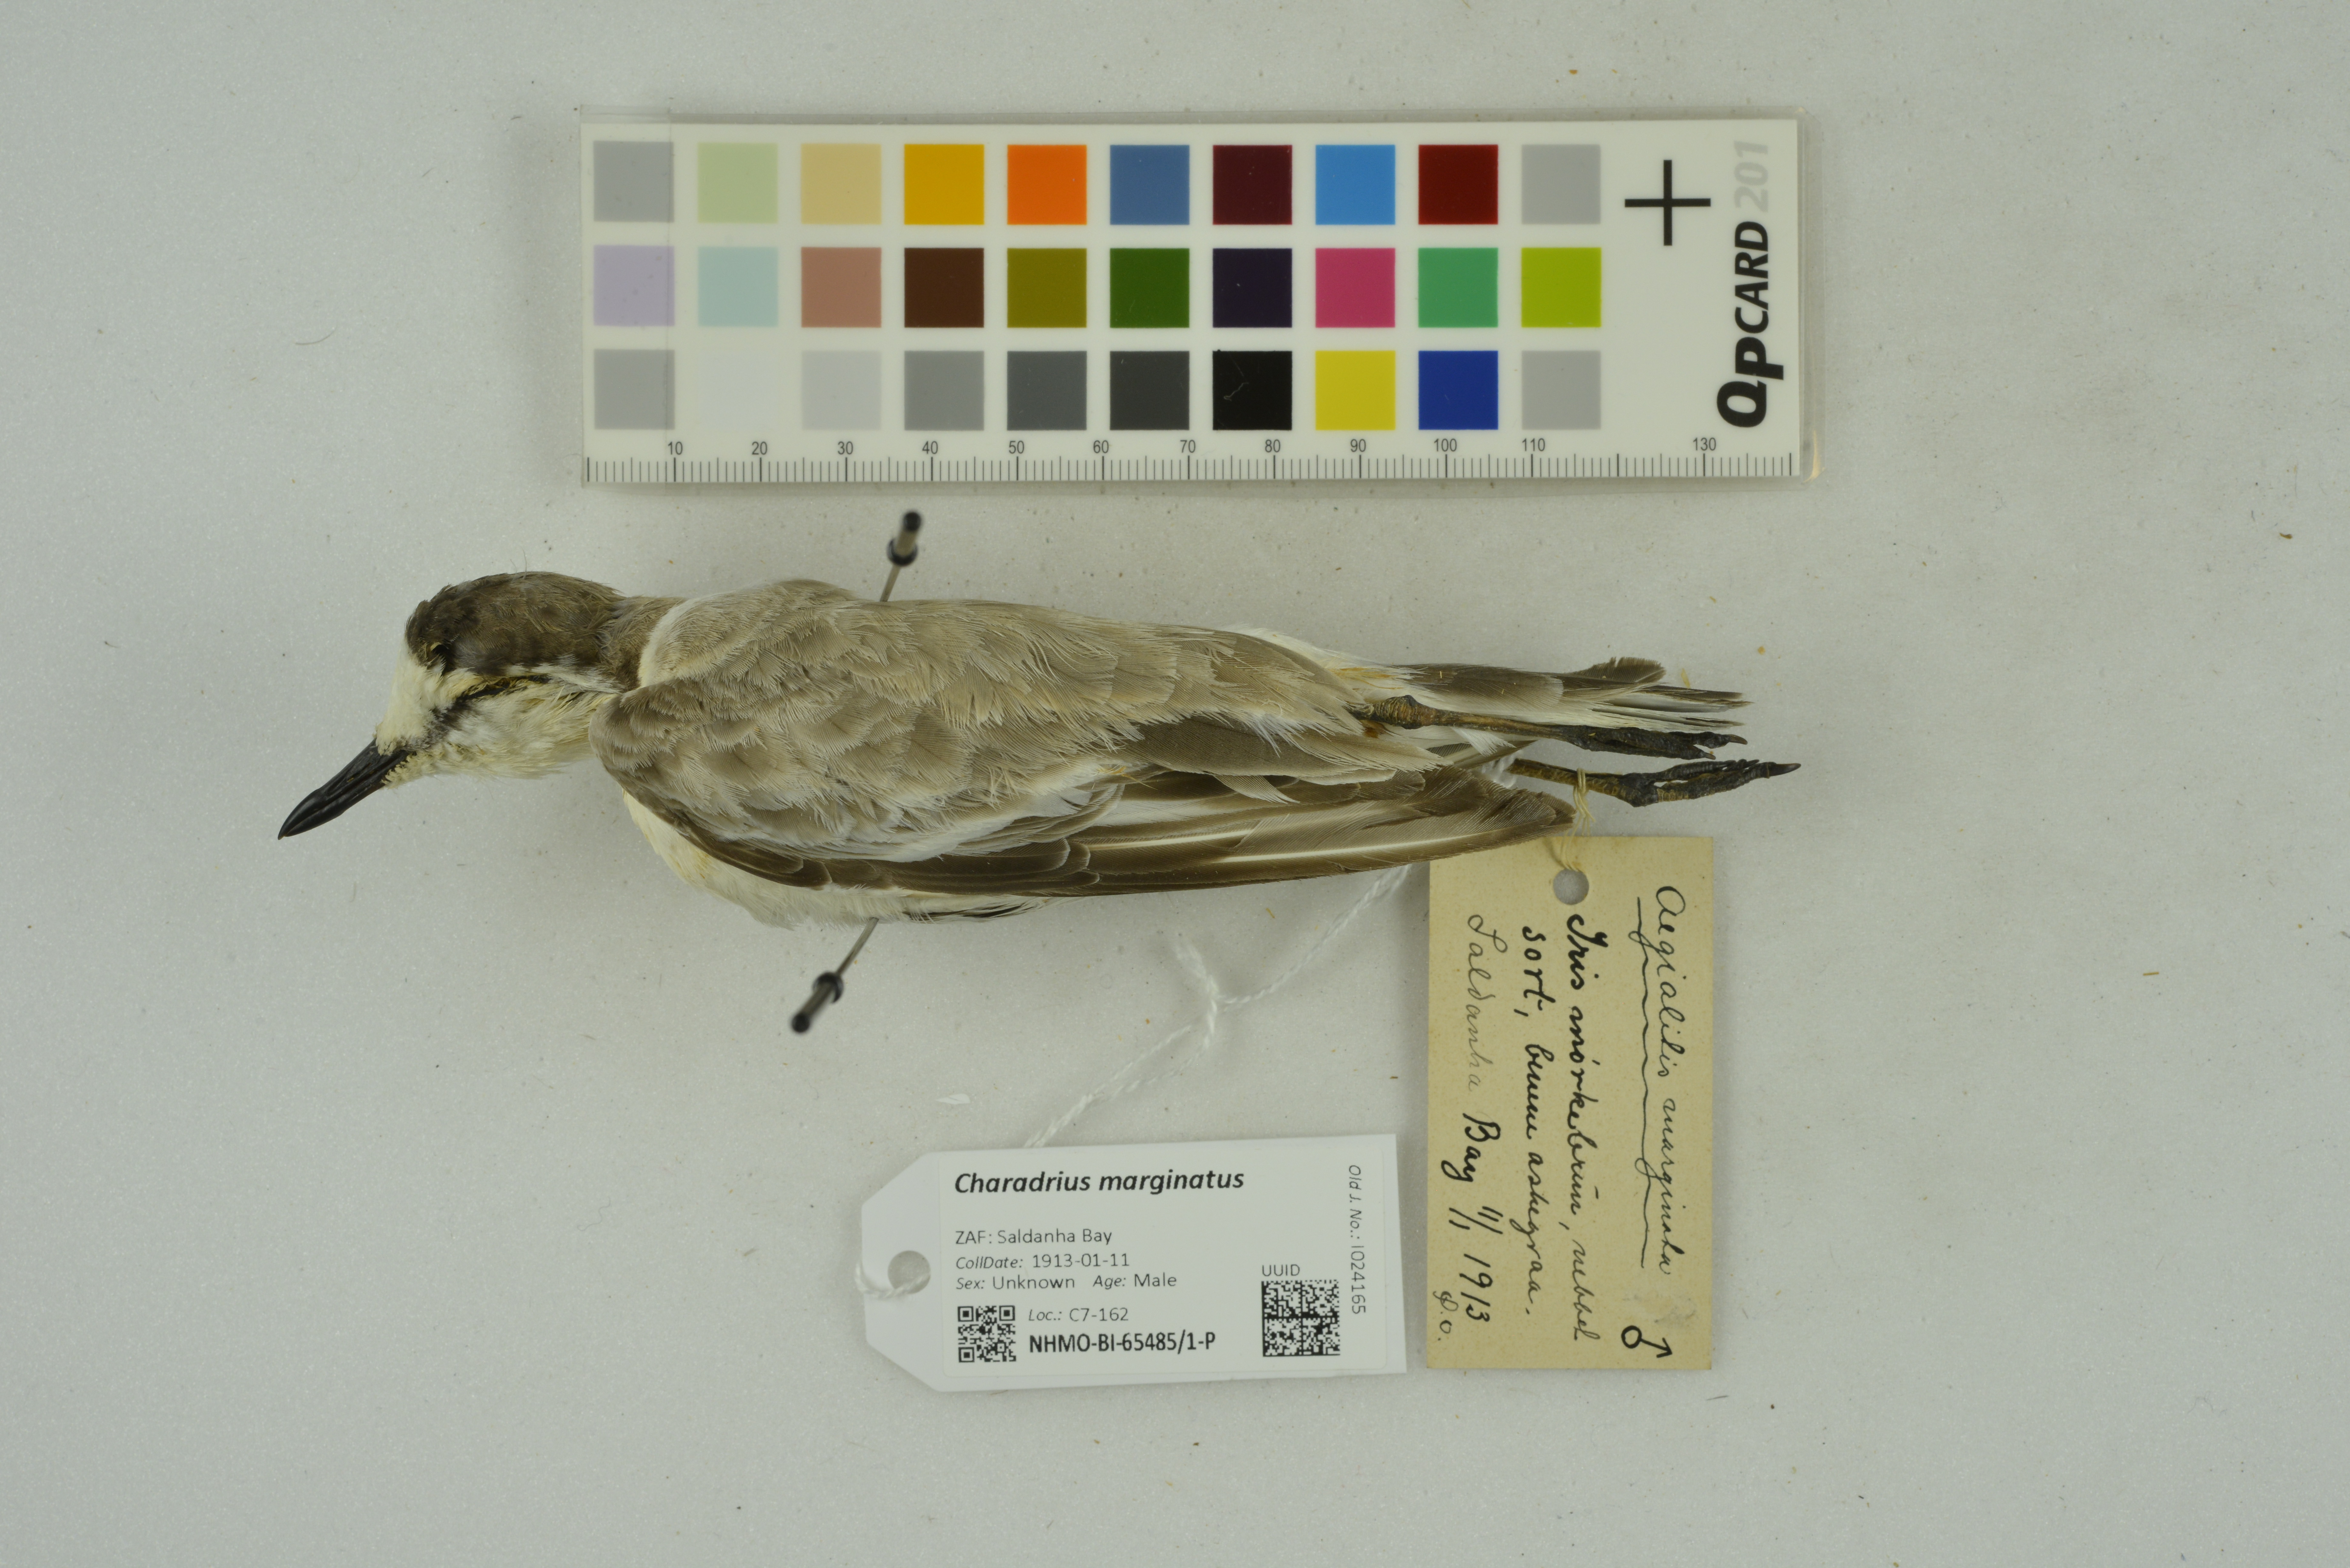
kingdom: Animalia
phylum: Chordata
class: Aves
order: Charadriiformes
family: Charadriidae
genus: Charadrius
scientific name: Charadrius marginatus
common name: White-fronted plover
